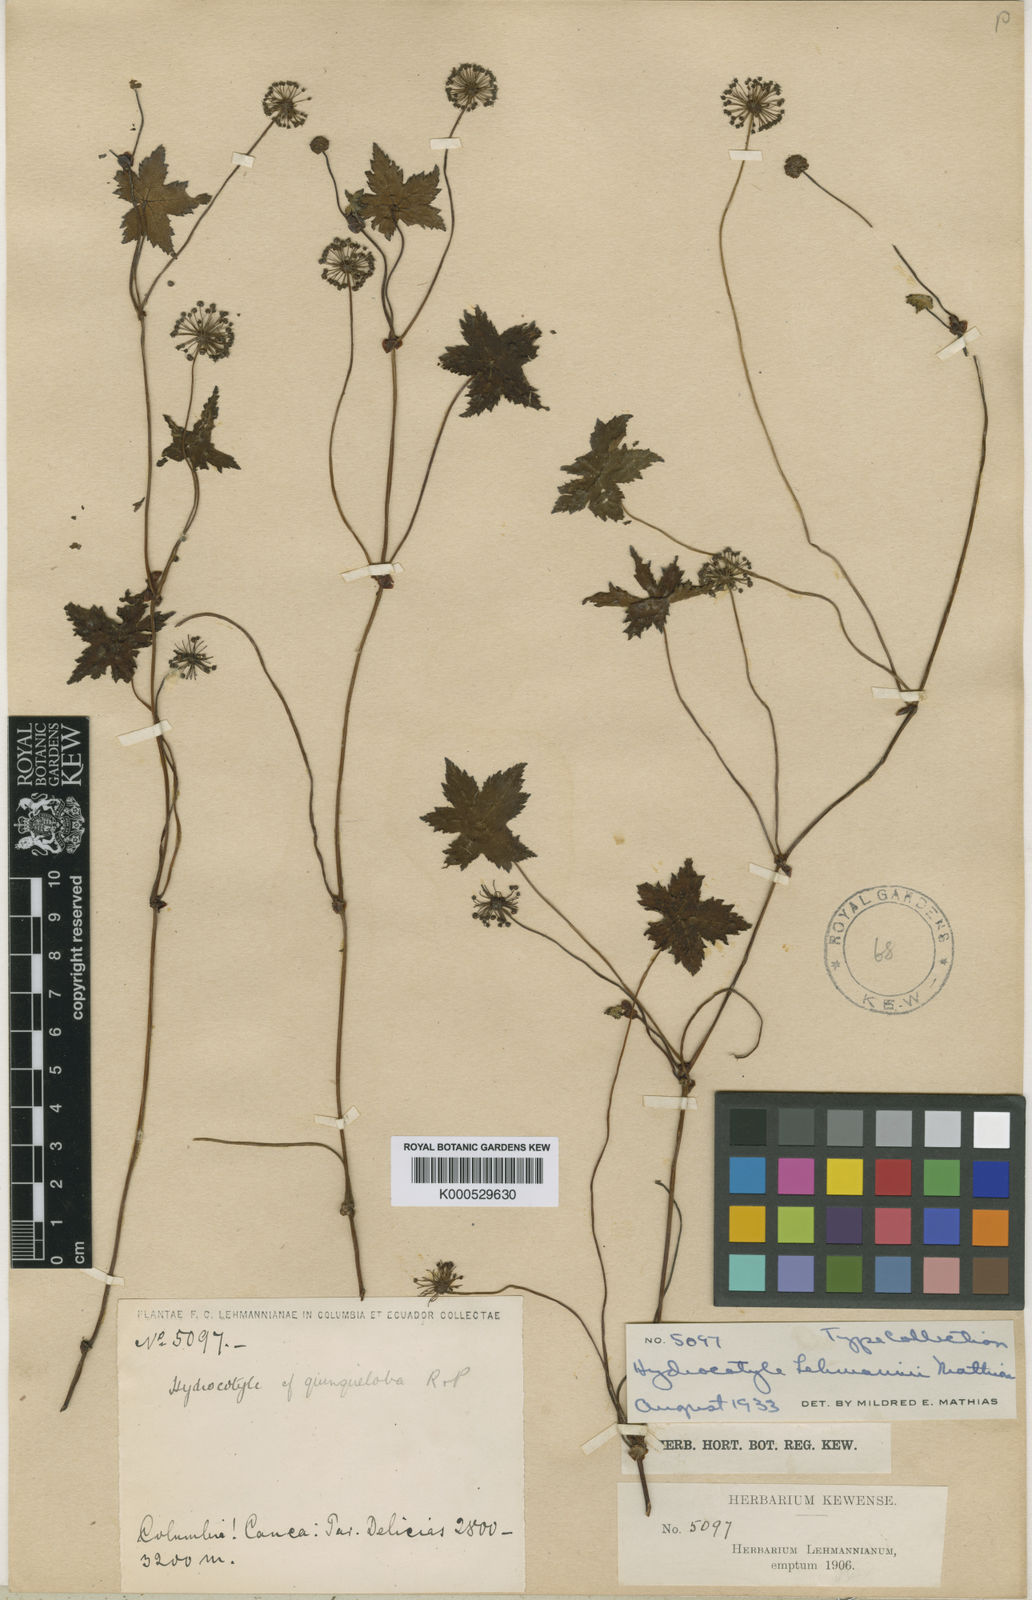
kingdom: Plantae
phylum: Tracheophyta
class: Magnoliopsida
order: Apiales
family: Araliaceae
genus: Hydrocotyle
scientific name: Hydrocotyle lehmannii
